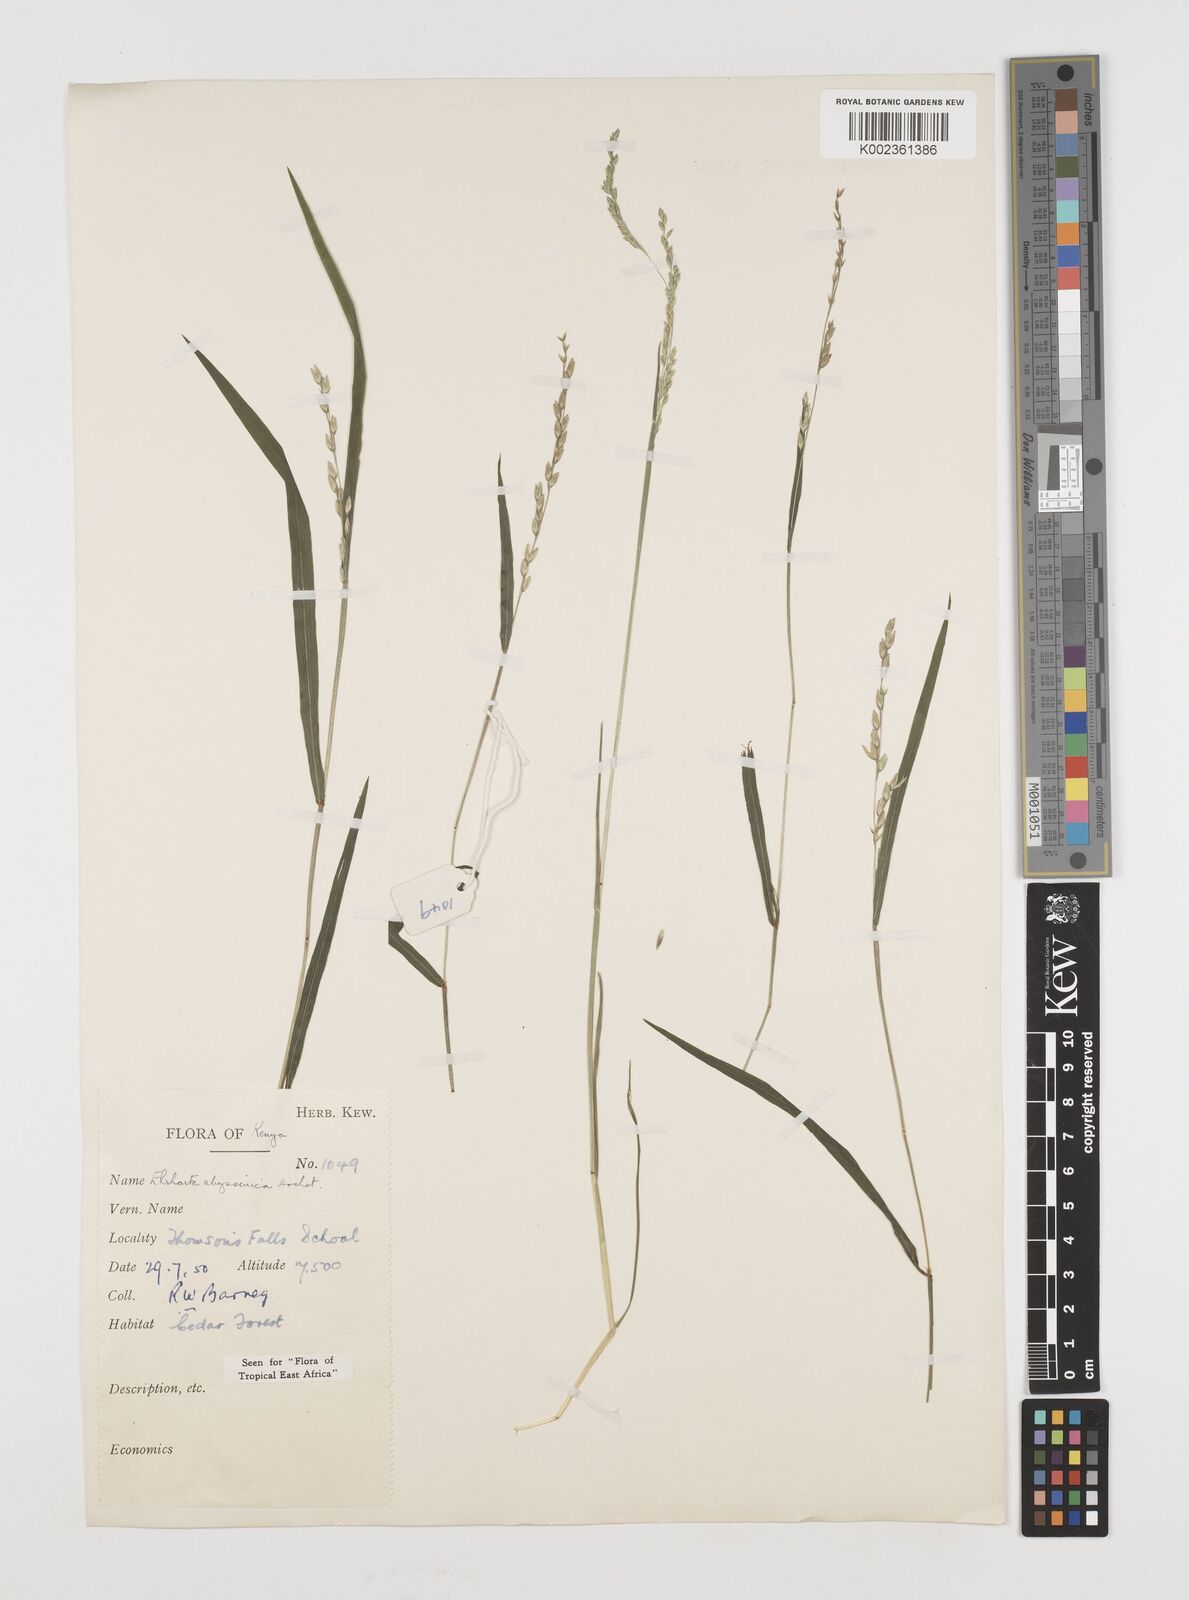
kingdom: Plantae
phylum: Tracheophyta
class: Liliopsida
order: Poales
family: Poaceae
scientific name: Poaceae
